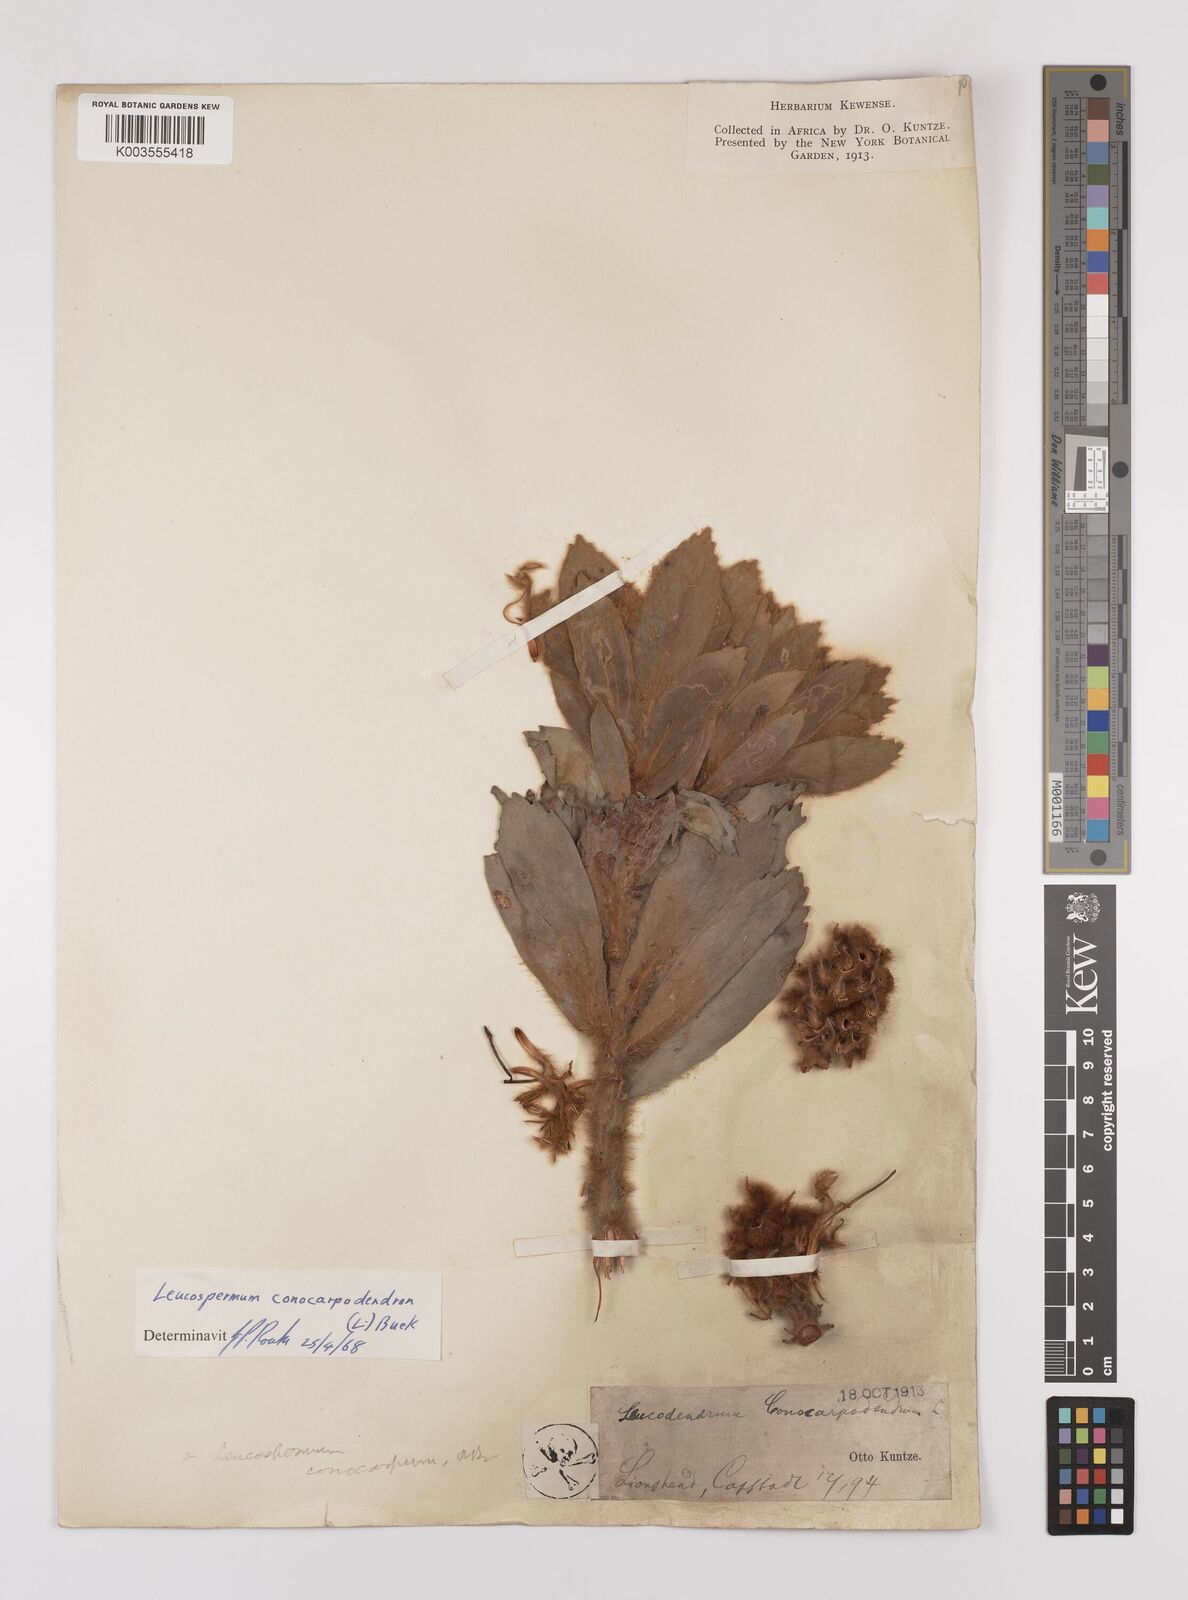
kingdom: Plantae
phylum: Tracheophyta
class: Magnoliopsida
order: Proteales
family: Proteaceae
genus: Leucospermum
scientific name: Leucospermum conocarpodendron
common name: Tree pincushion
